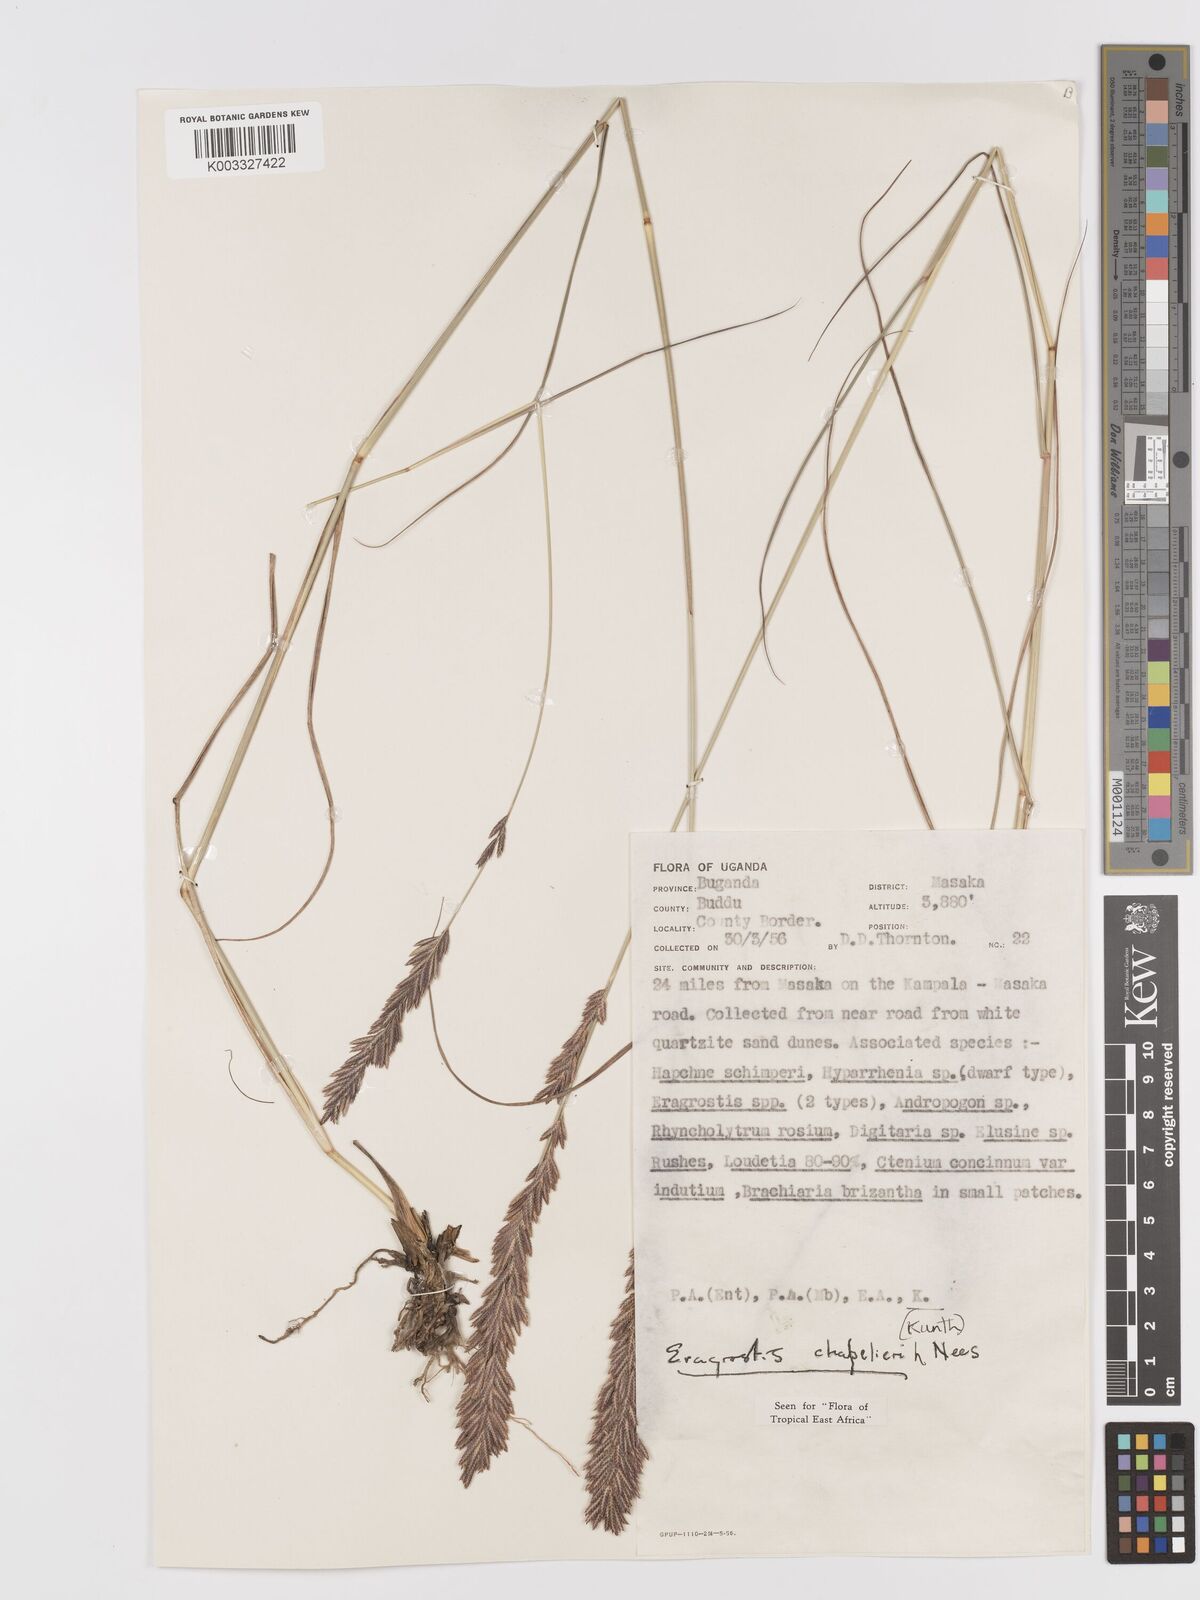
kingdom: Plantae
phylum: Tracheophyta
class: Liliopsida
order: Poales
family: Poaceae
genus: Eragrostis
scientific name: Eragrostis chapelieri
